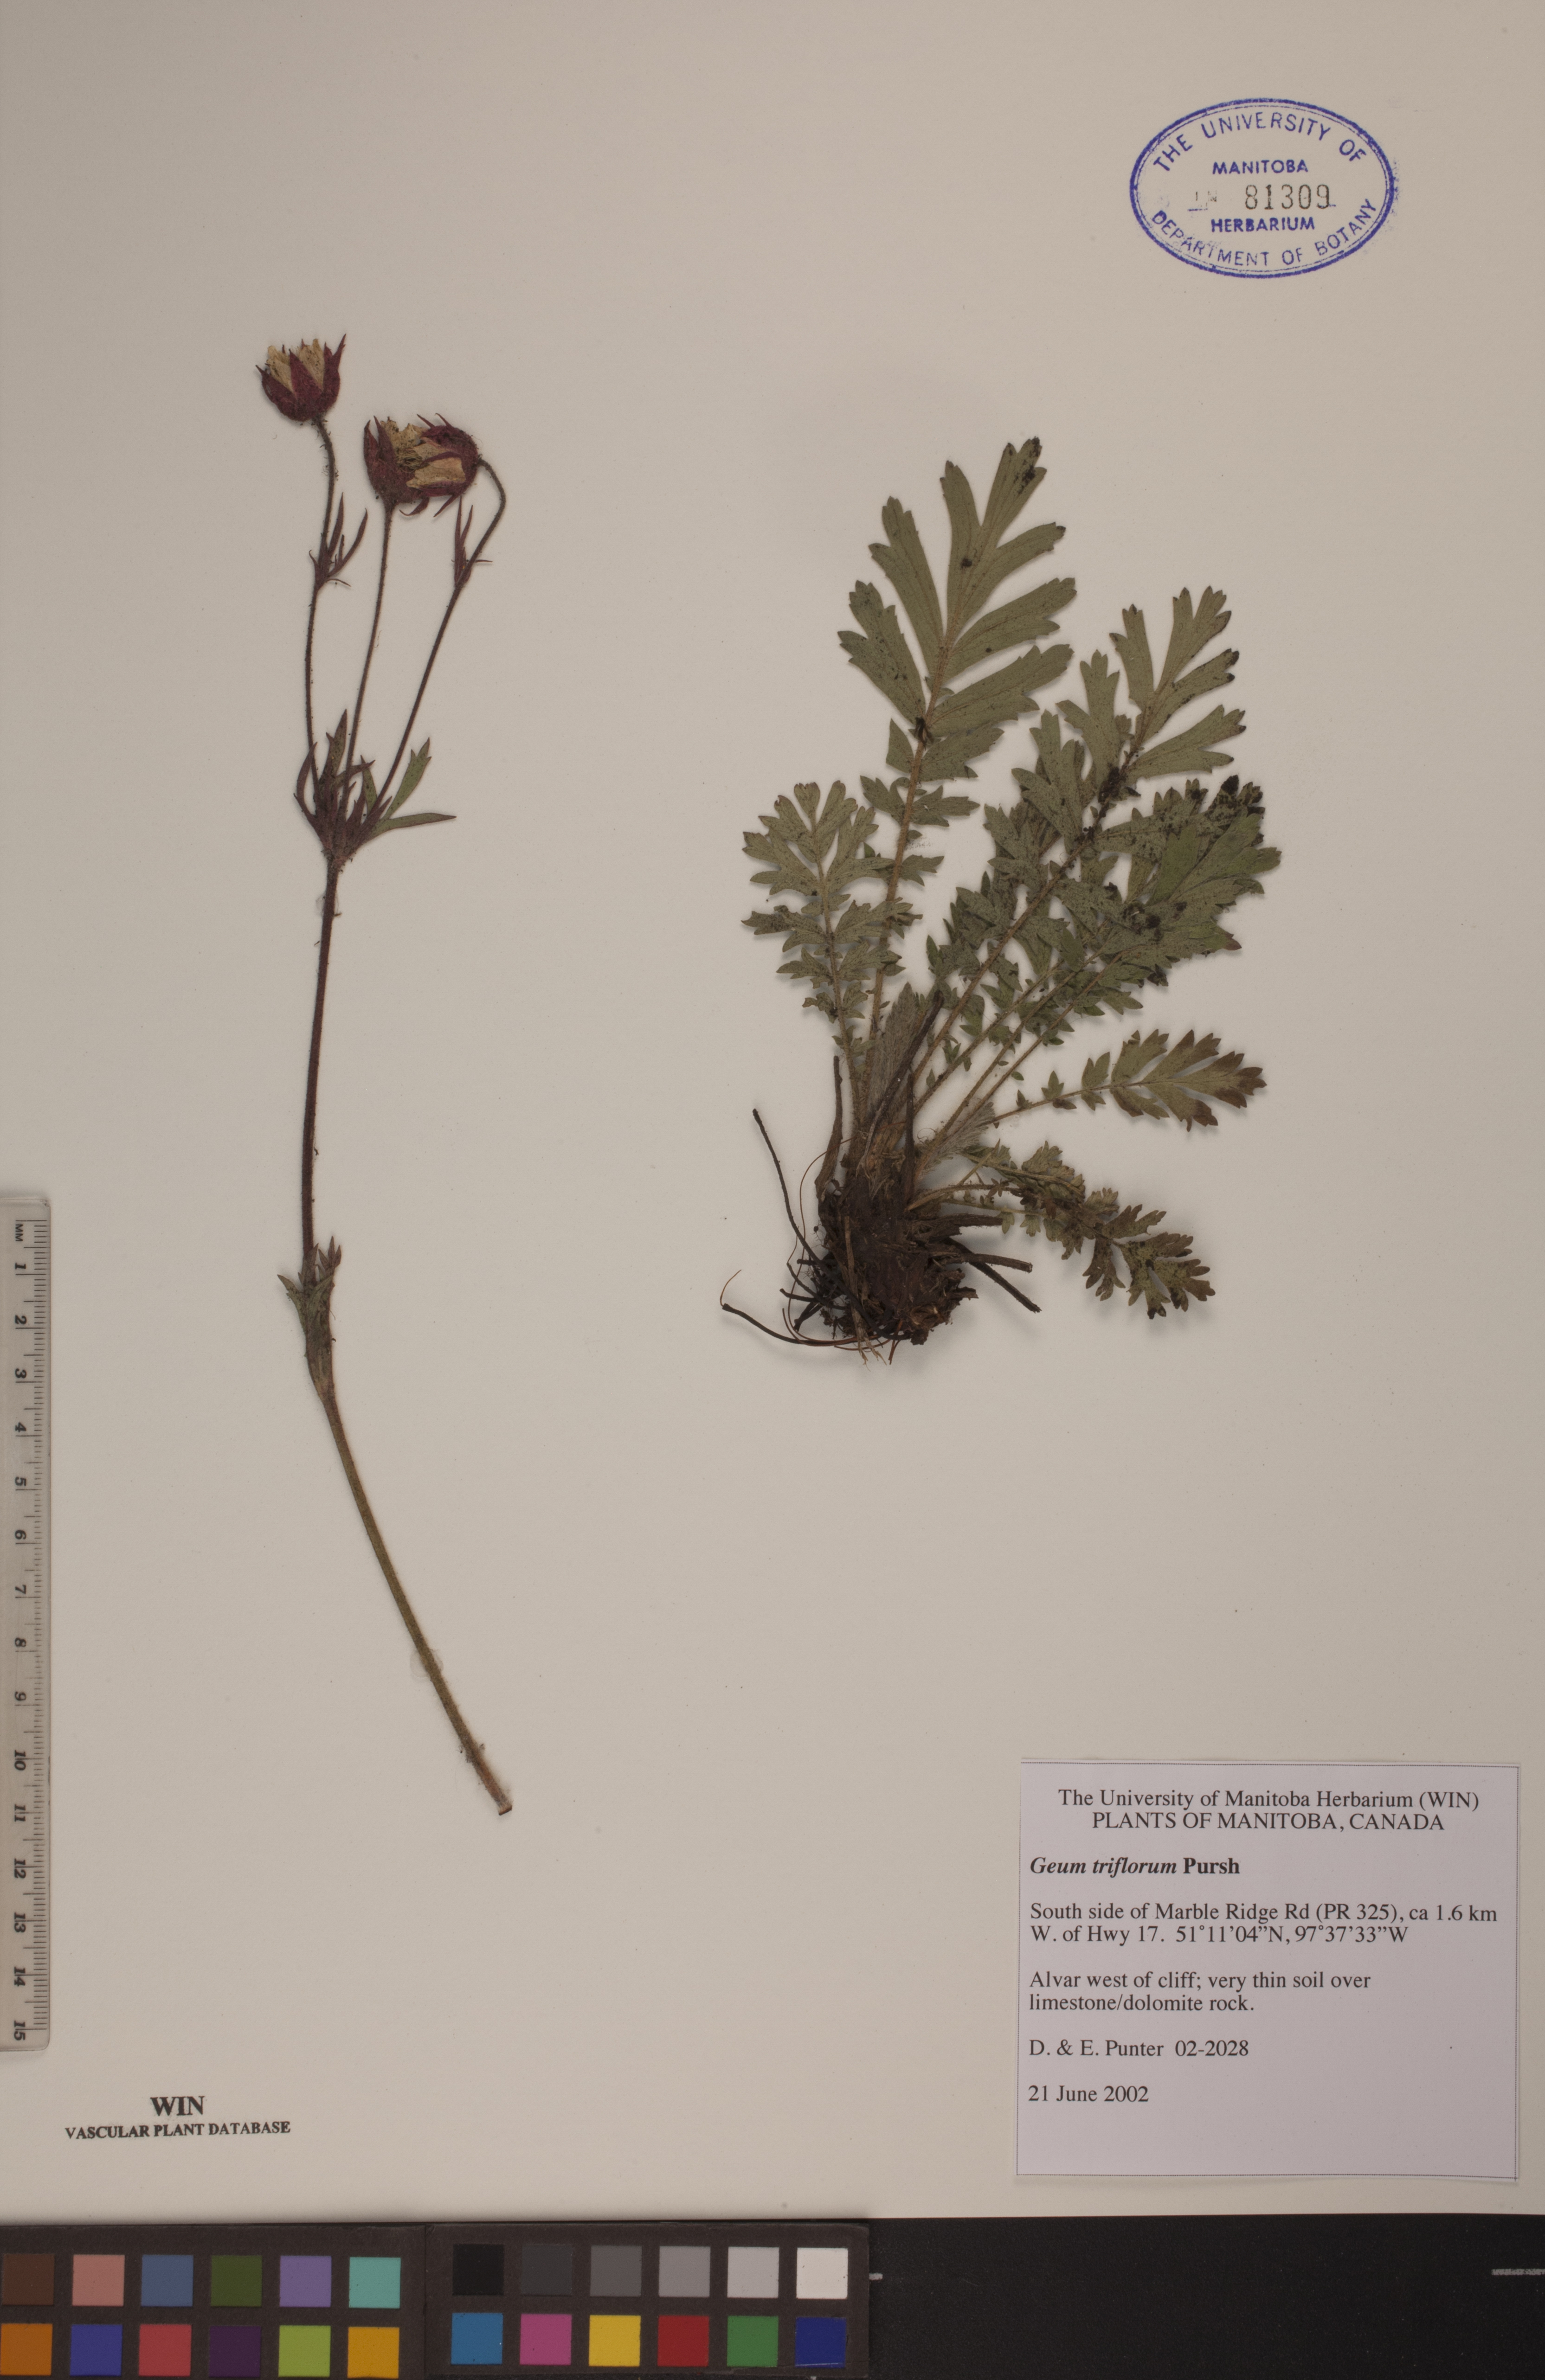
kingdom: Plantae
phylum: Tracheophyta
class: Magnoliopsida
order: Rosales
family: Rosaceae
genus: Geum
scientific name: Geum triflorum
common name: Old man's whiskers
